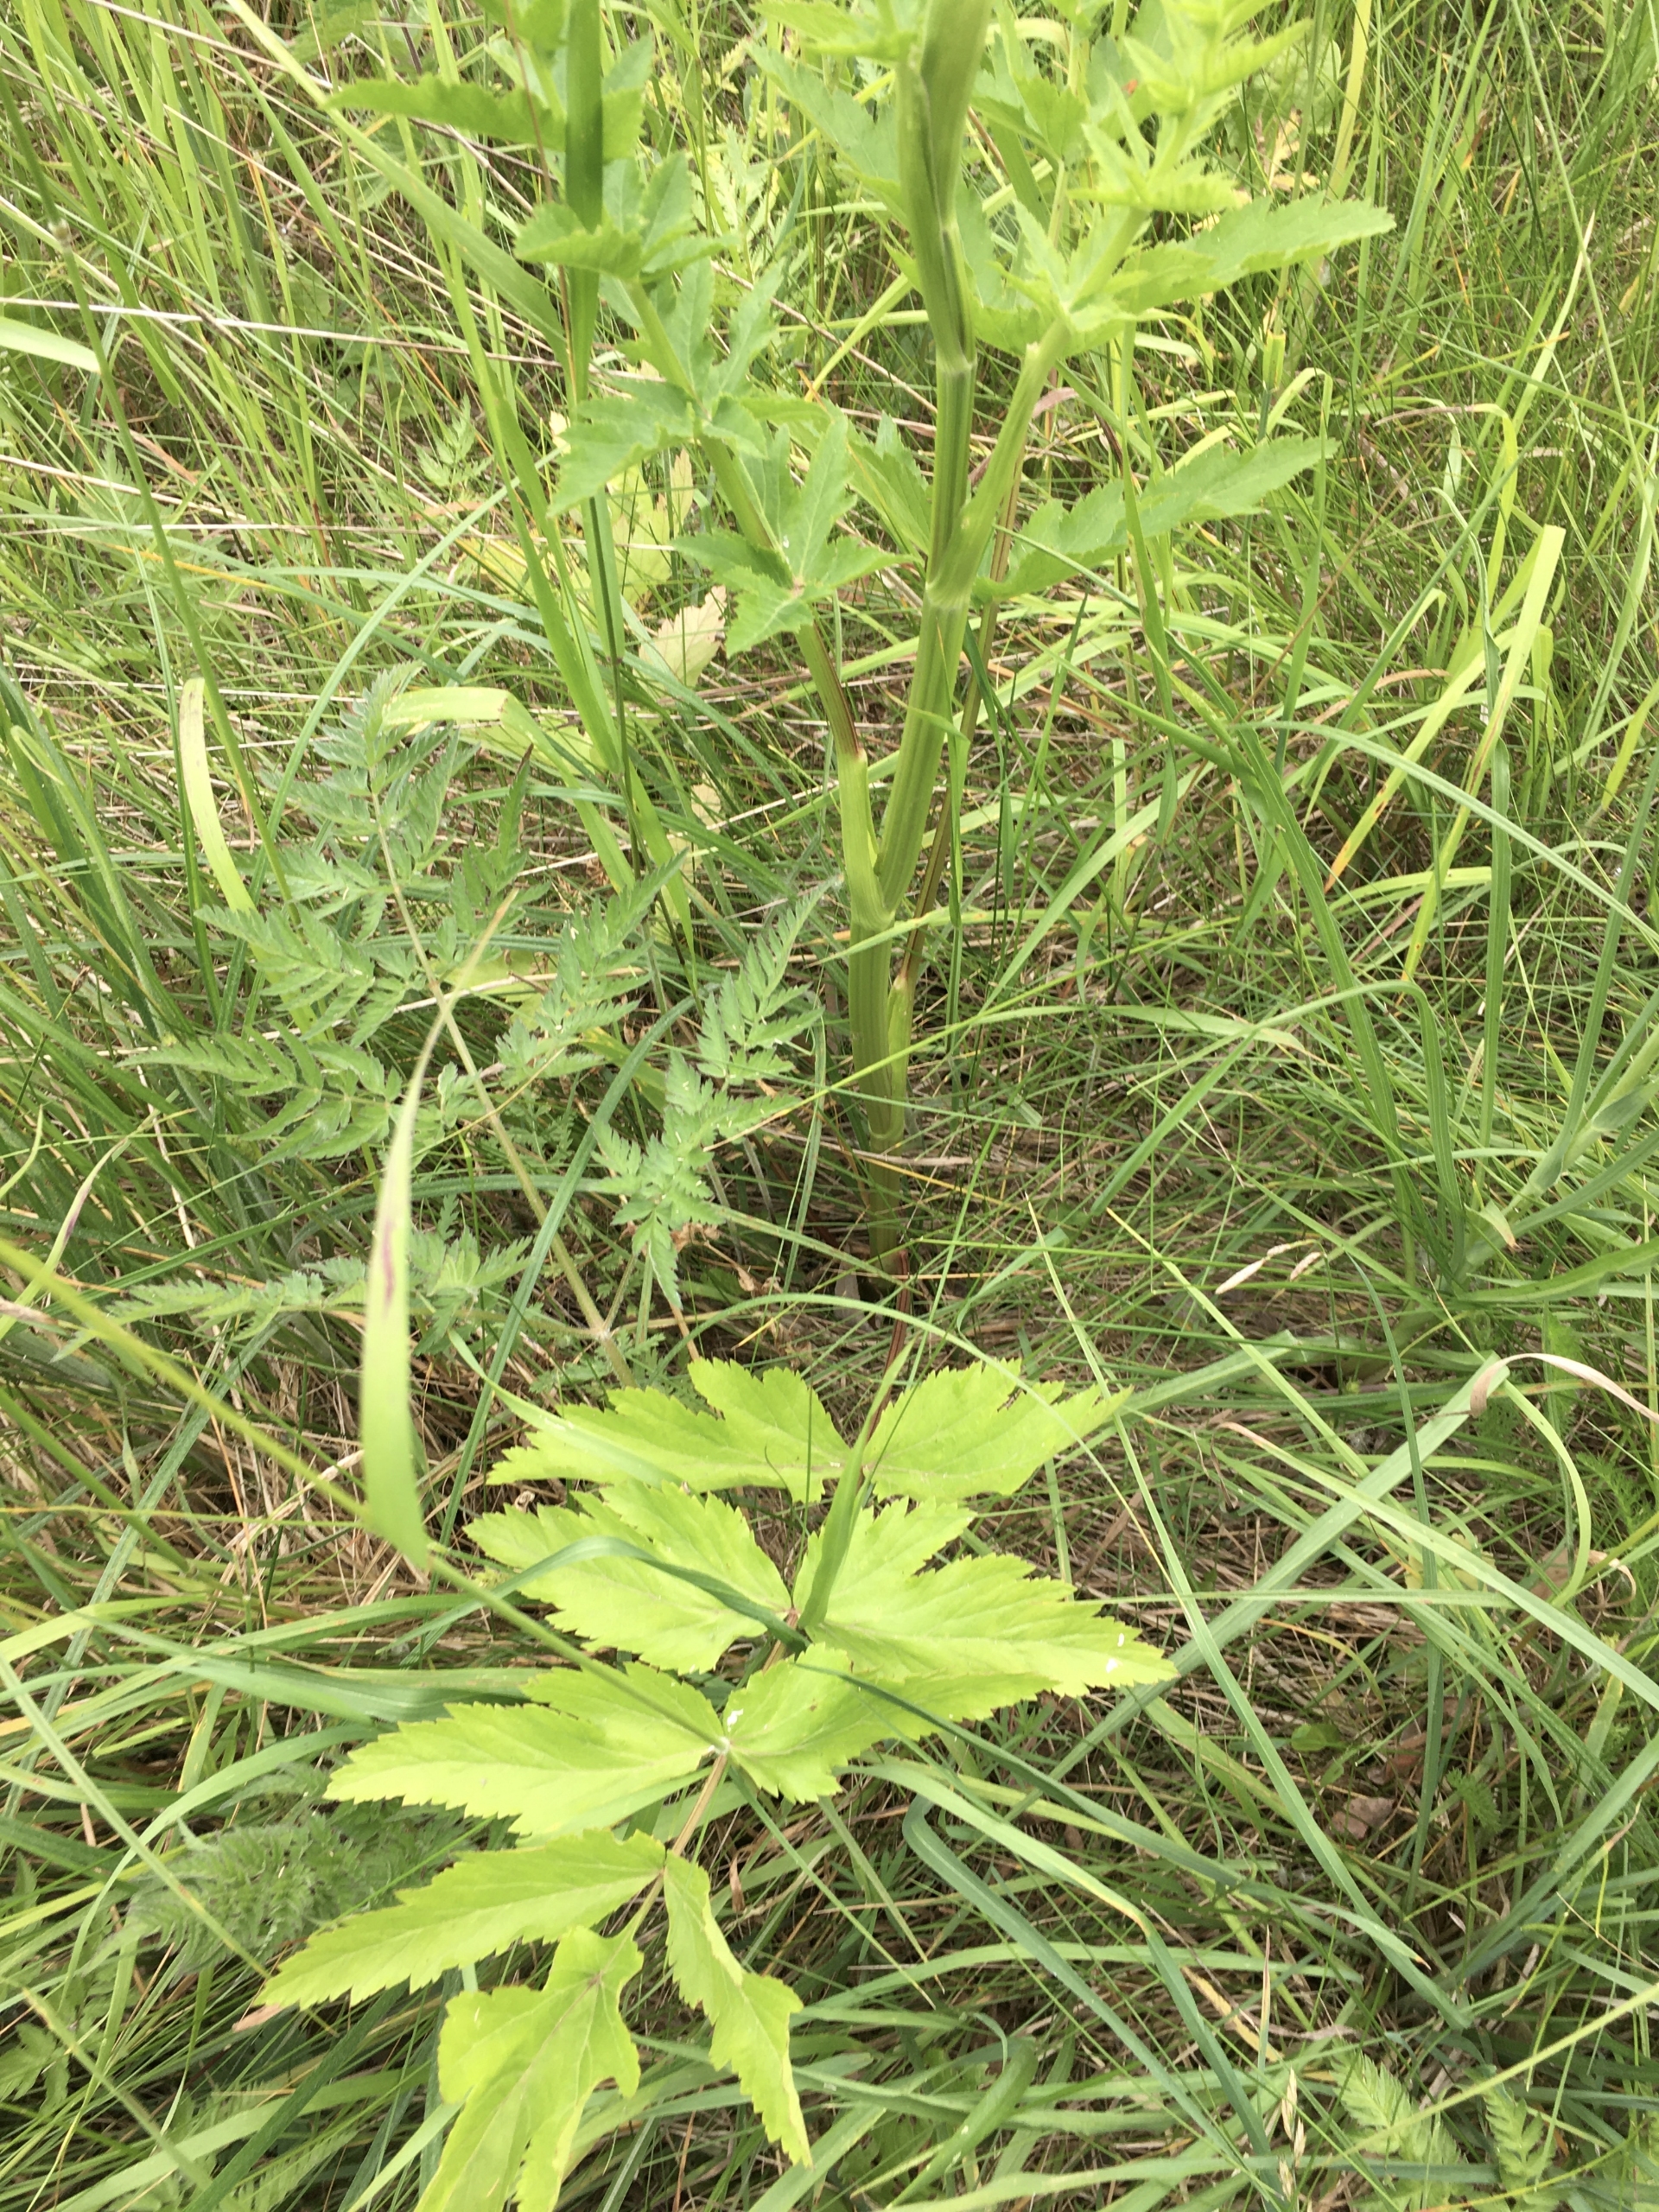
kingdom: Plantae
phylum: Tracheophyta
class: Magnoliopsida
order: Apiales
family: Apiaceae
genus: Pastinaca
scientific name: Pastinaca sativa
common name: Pastinak
